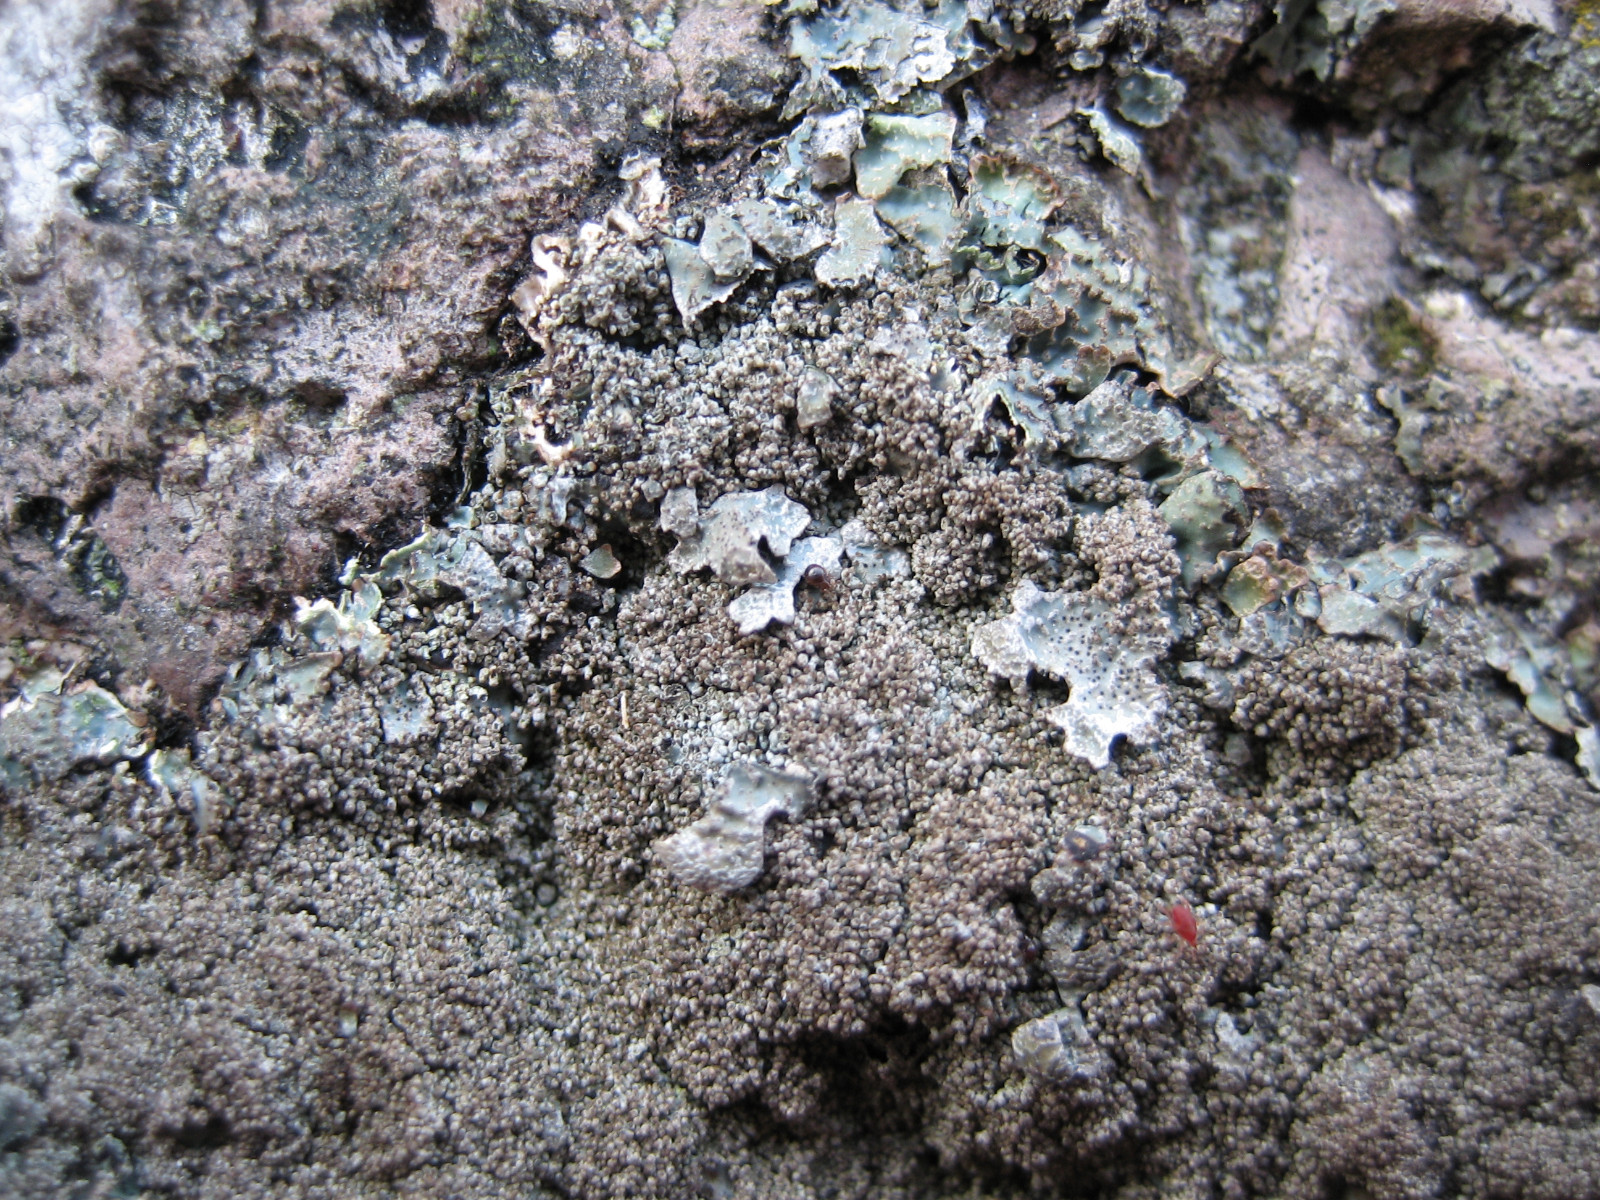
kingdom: Fungi
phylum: Ascomycota
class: Lecanoromycetes
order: Lecanorales
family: Parmeliaceae
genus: Parmelia
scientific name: Parmelia saxatilis
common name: farve-skållav
